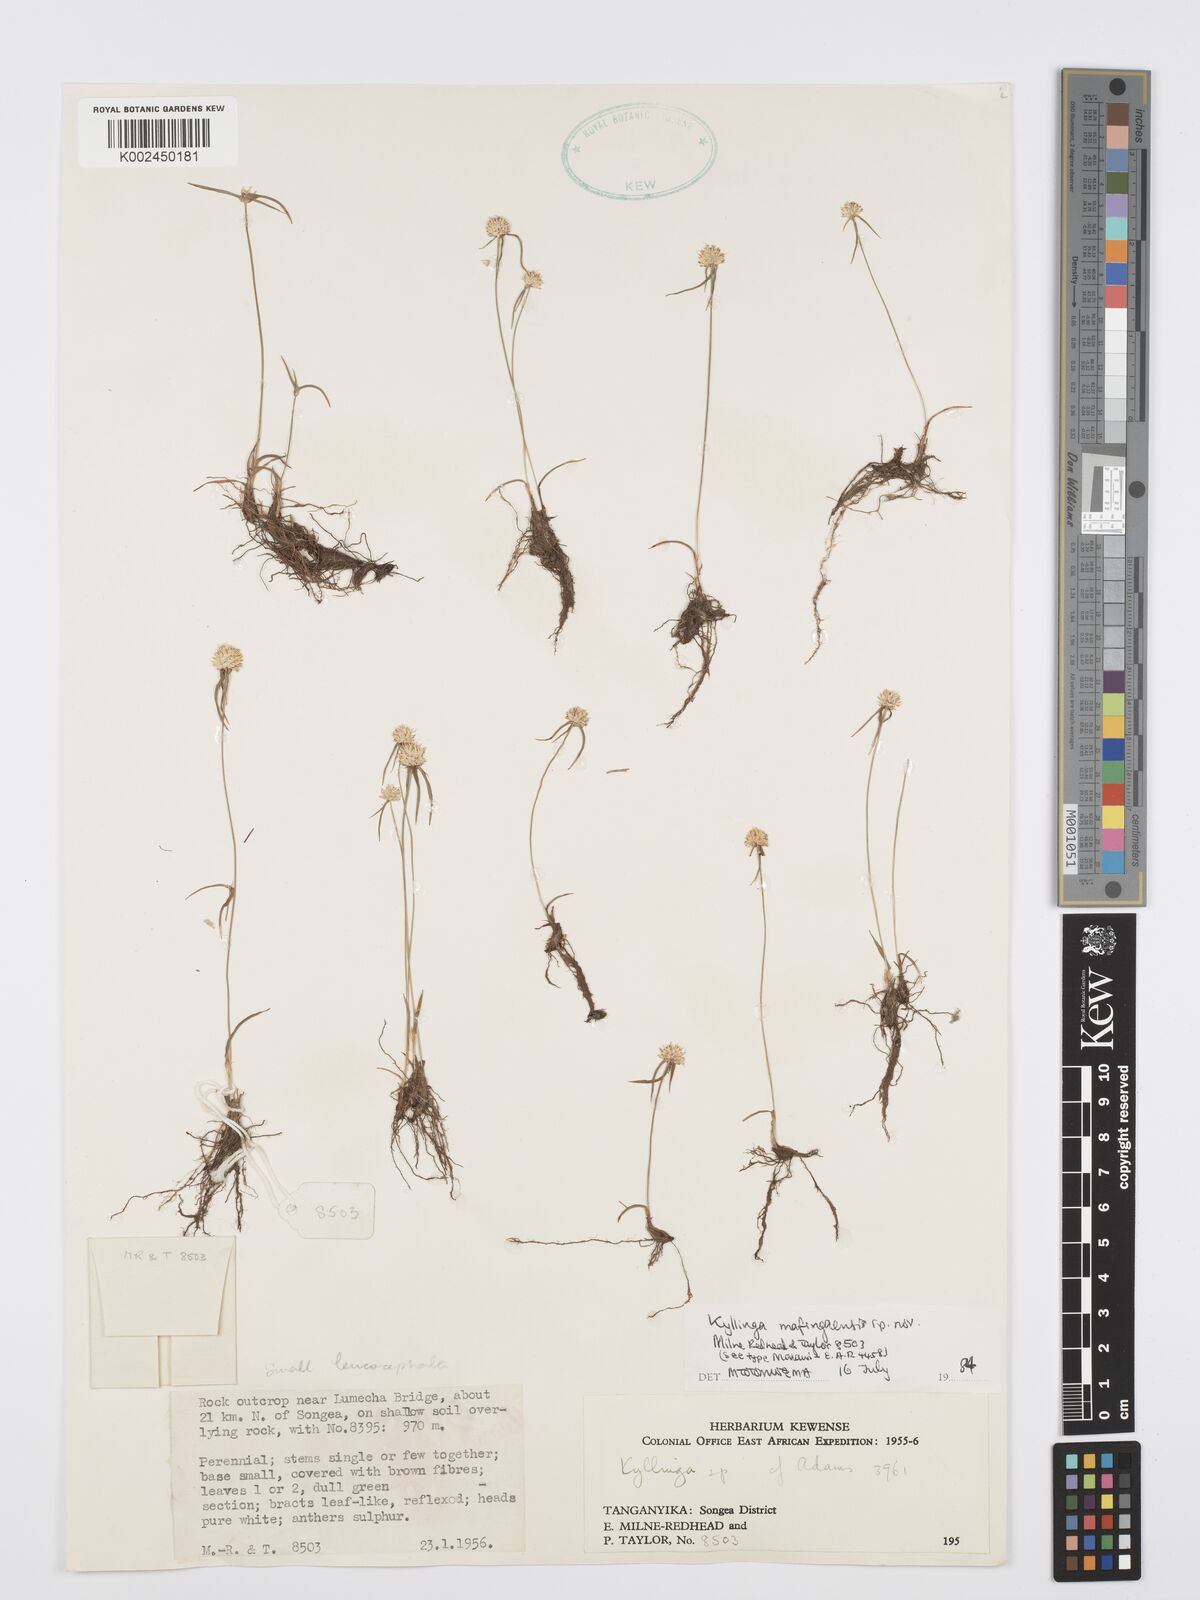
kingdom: Plantae
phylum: Tracheophyta
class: Liliopsida
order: Poales
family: Cyperaceae
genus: Cyperus
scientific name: Cyperus
